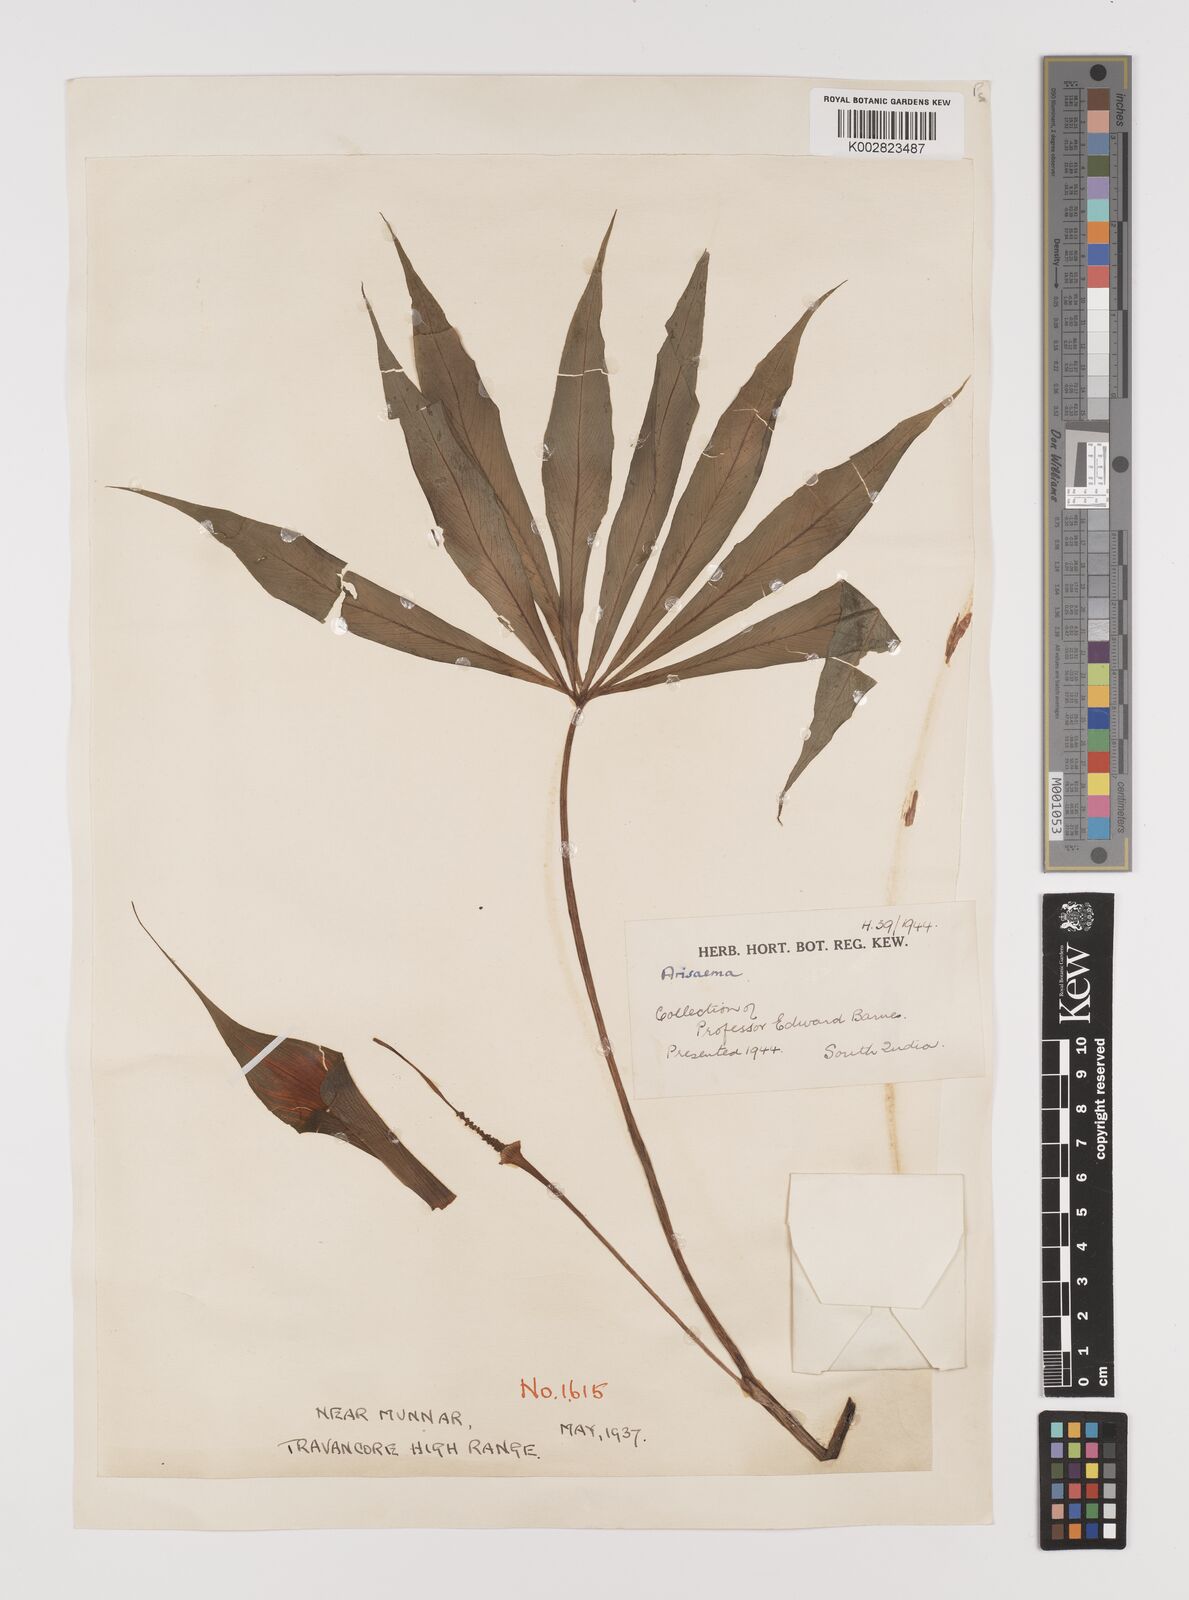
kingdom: Plantae
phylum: Tracheophyta
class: Liliopsida
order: Alismatales
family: Araceae
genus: Arisaema
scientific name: Arisaema
